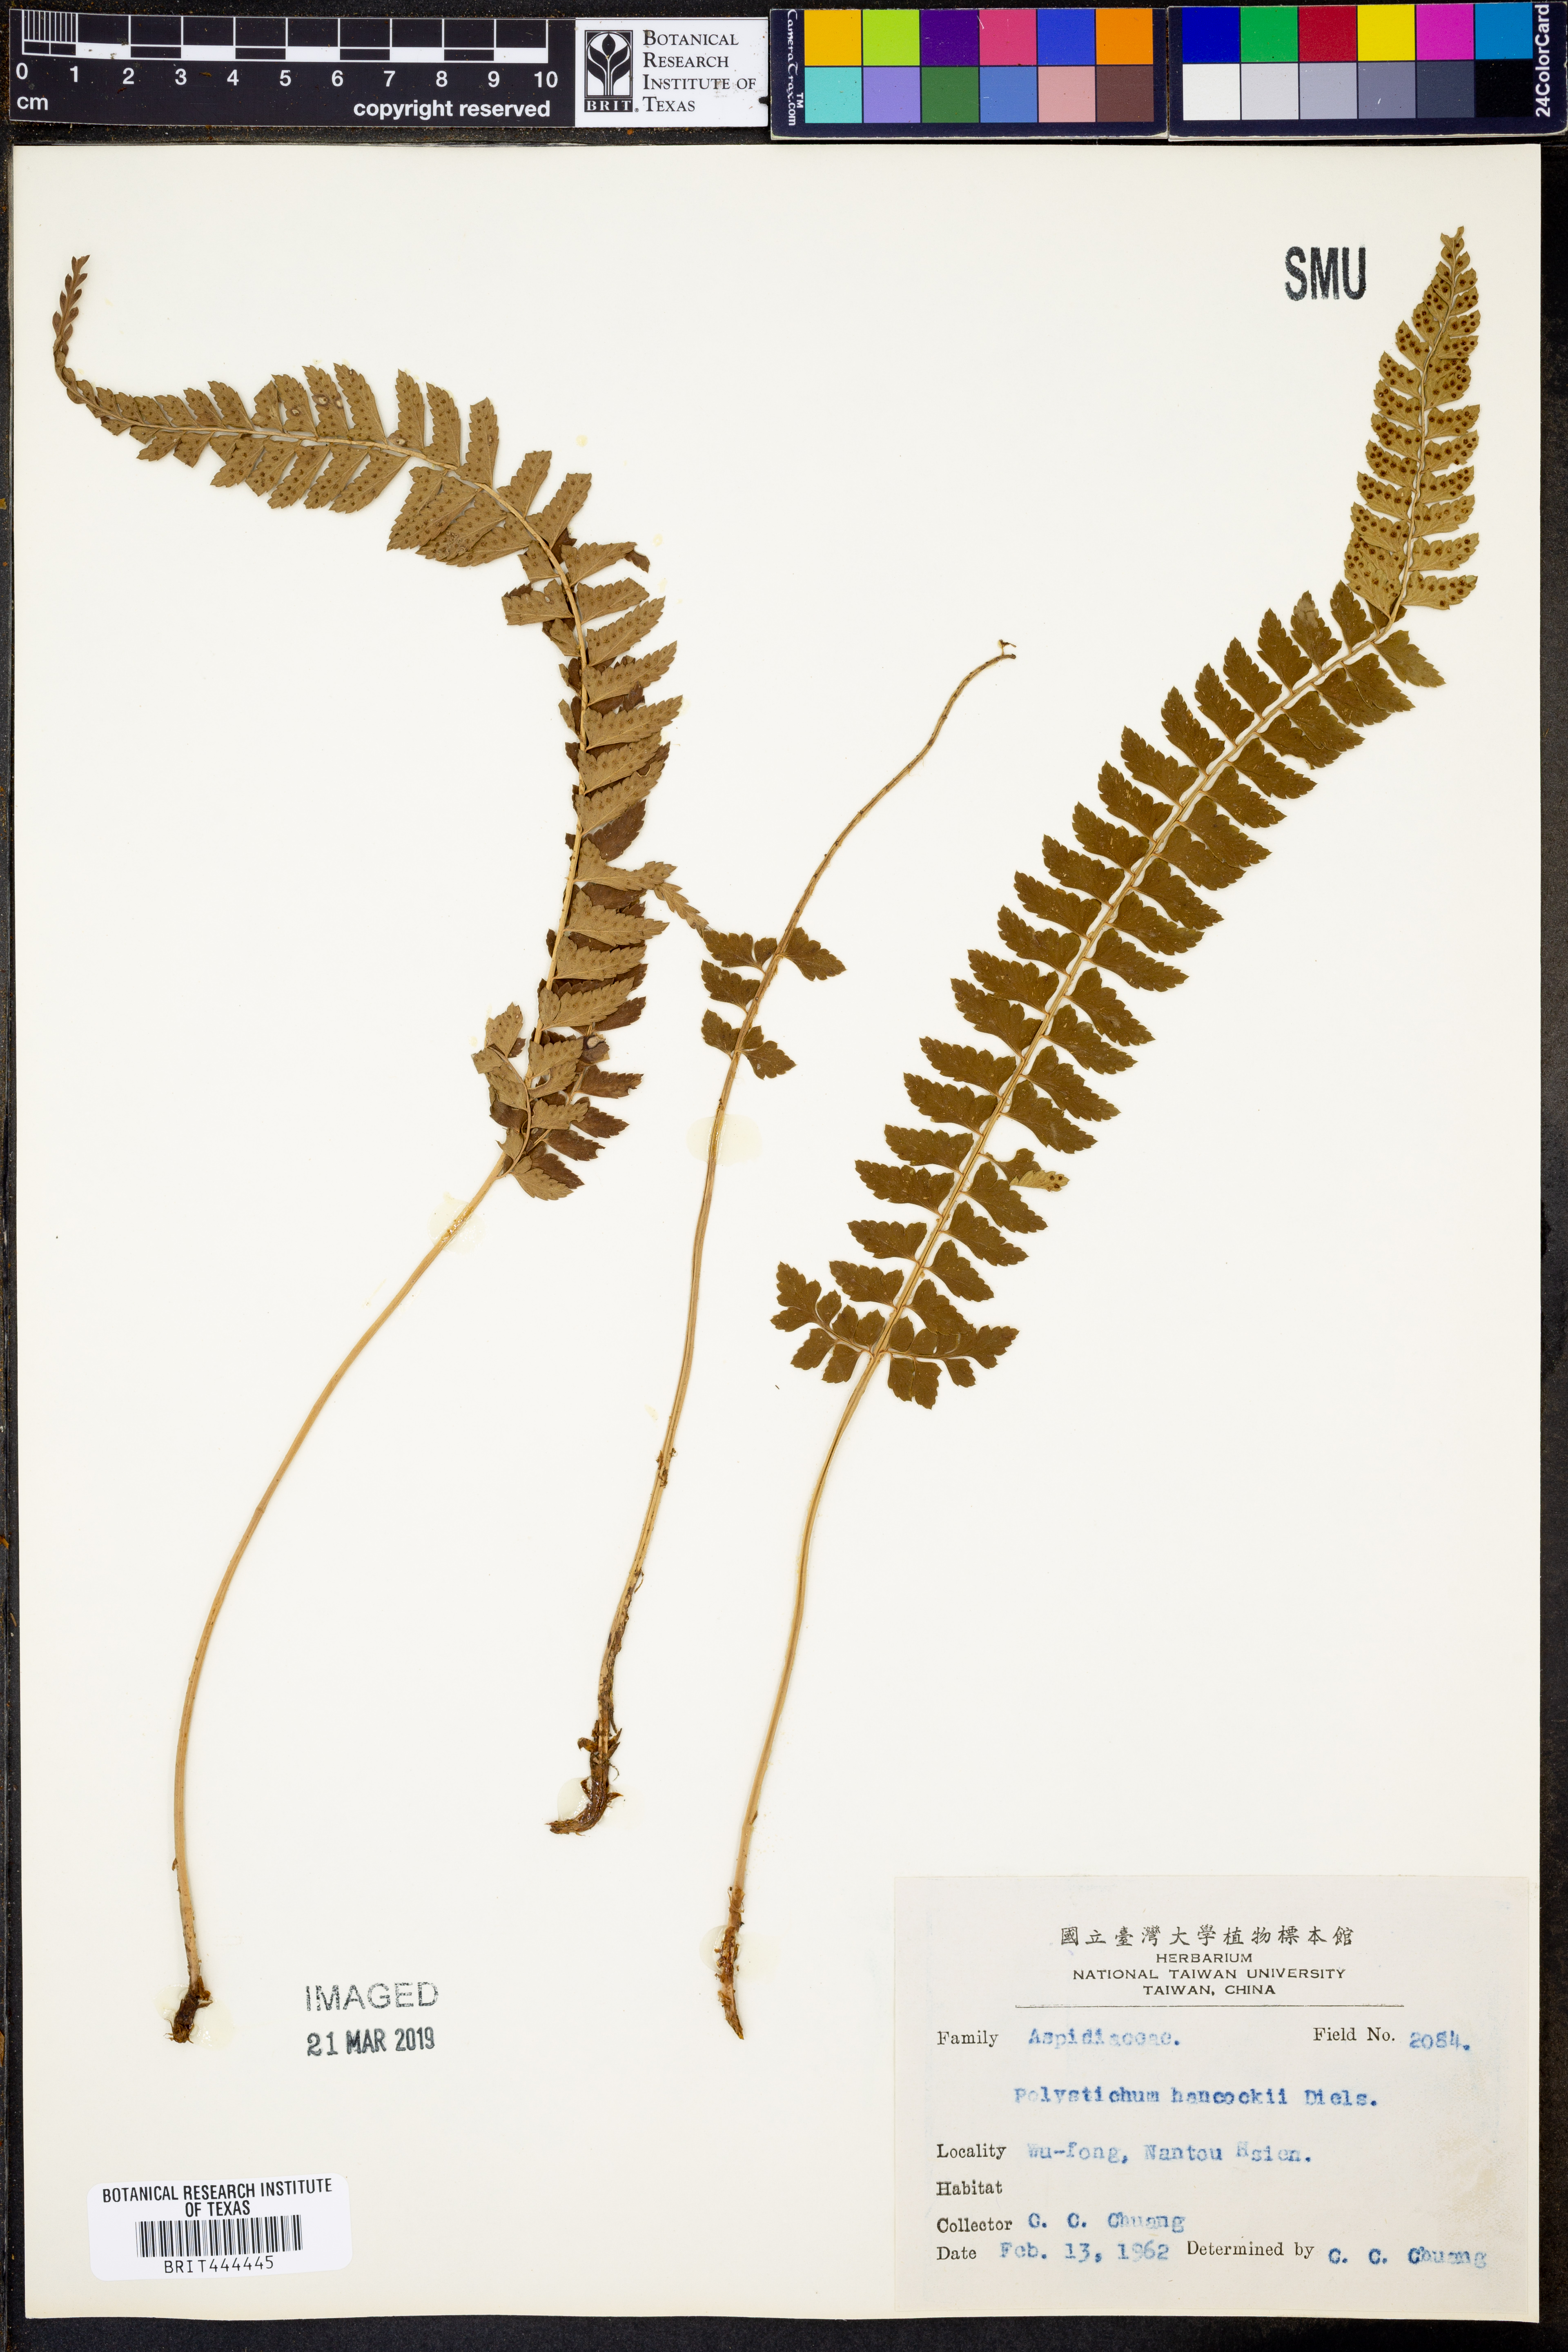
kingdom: Plantae
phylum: Tracheophyta
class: Polypodiopsida
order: Polypodiales
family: Dryopteridaceae
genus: Polystichum
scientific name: Polystichum hancockii
